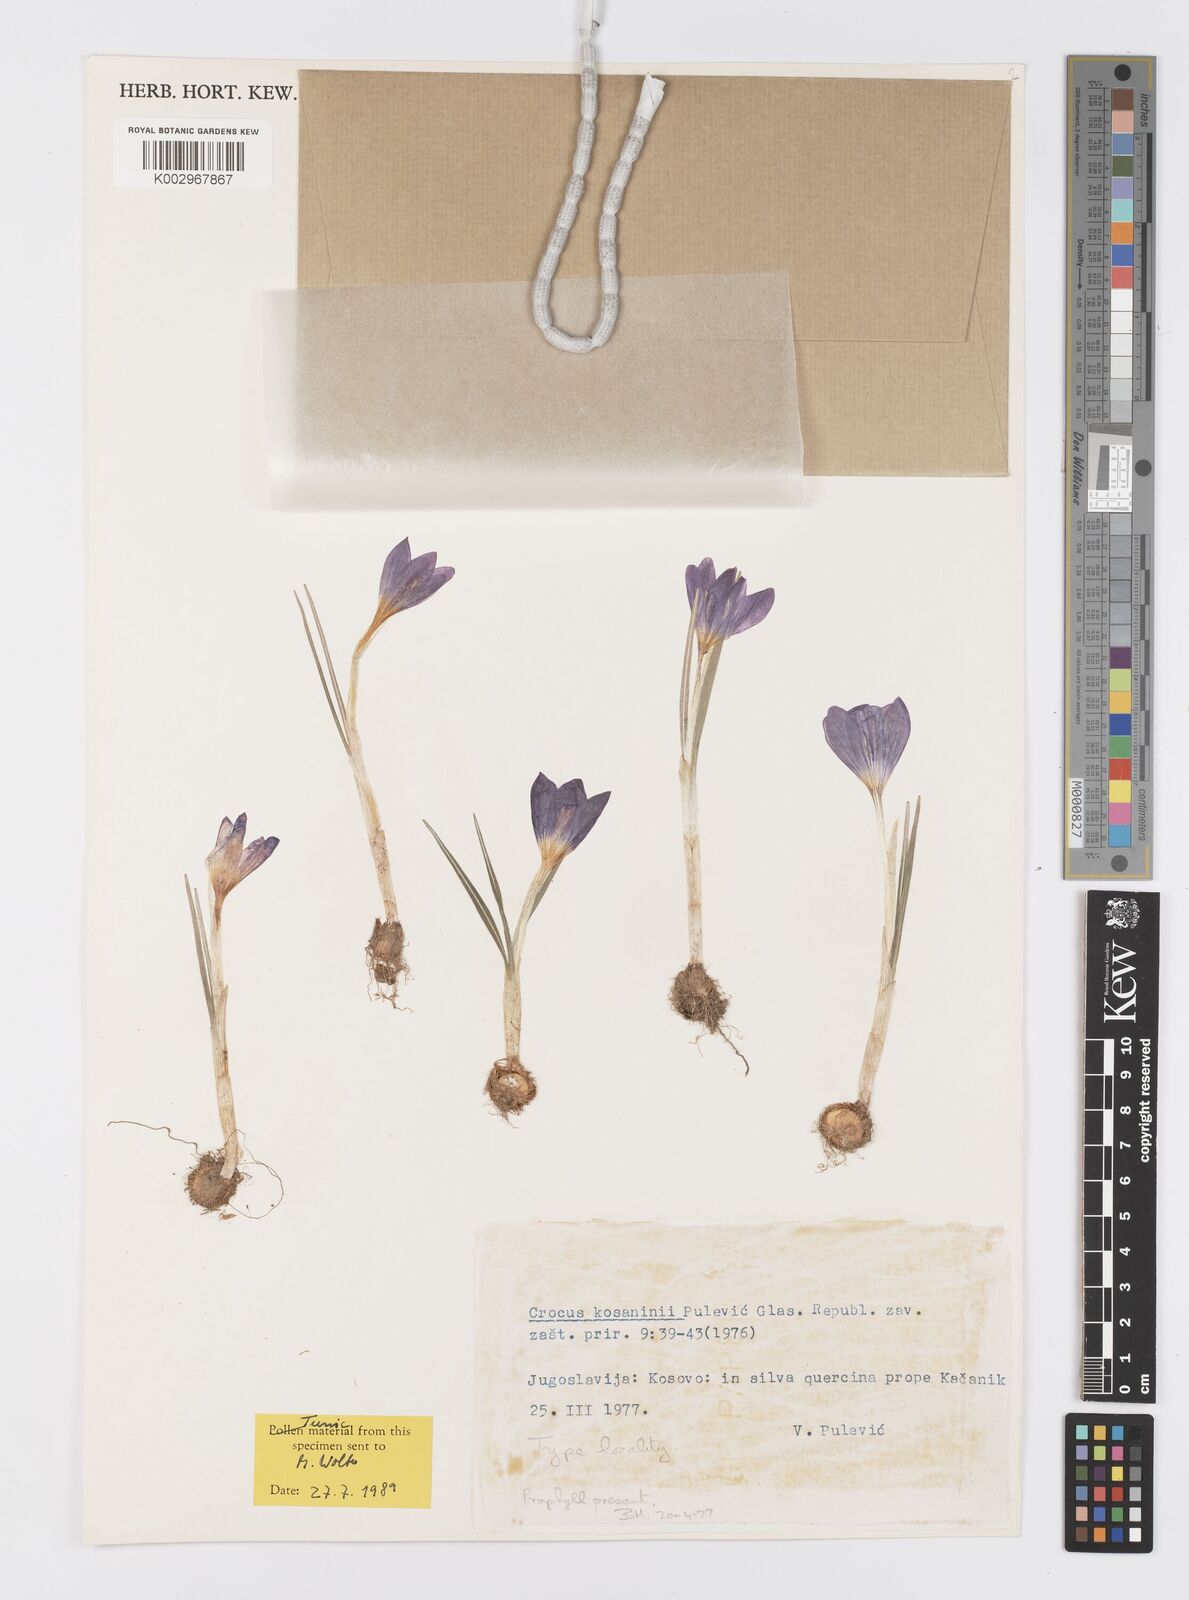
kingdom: Plantae
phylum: Tracheophyta
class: Liliopsida
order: Asparagales
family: Iridaceae
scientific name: Iridaceae
